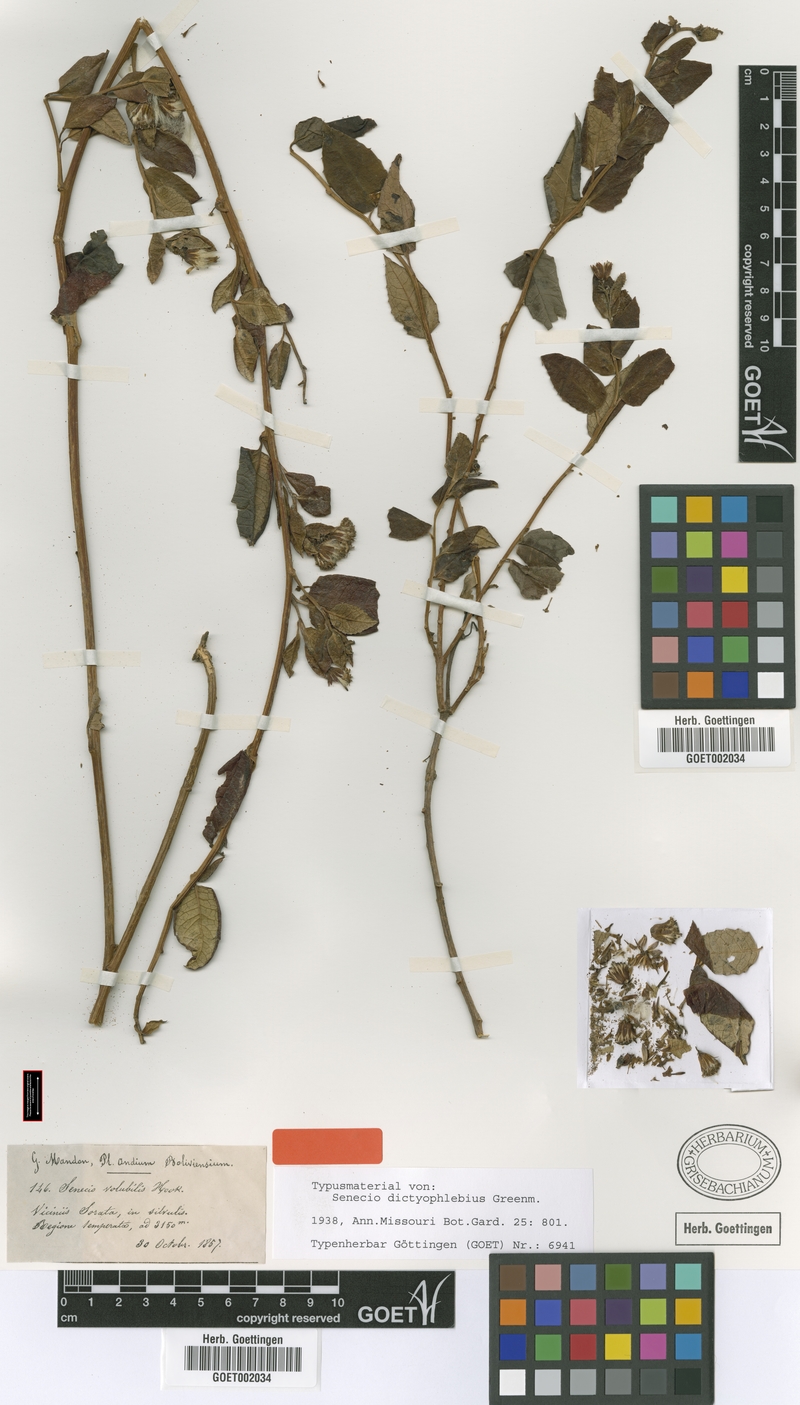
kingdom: Plantae
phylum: Tracheophyta
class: Magnoliopsida
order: Asterales
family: Asteraceae
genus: Pentacalia
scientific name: Pentacalia dictyophlebia
